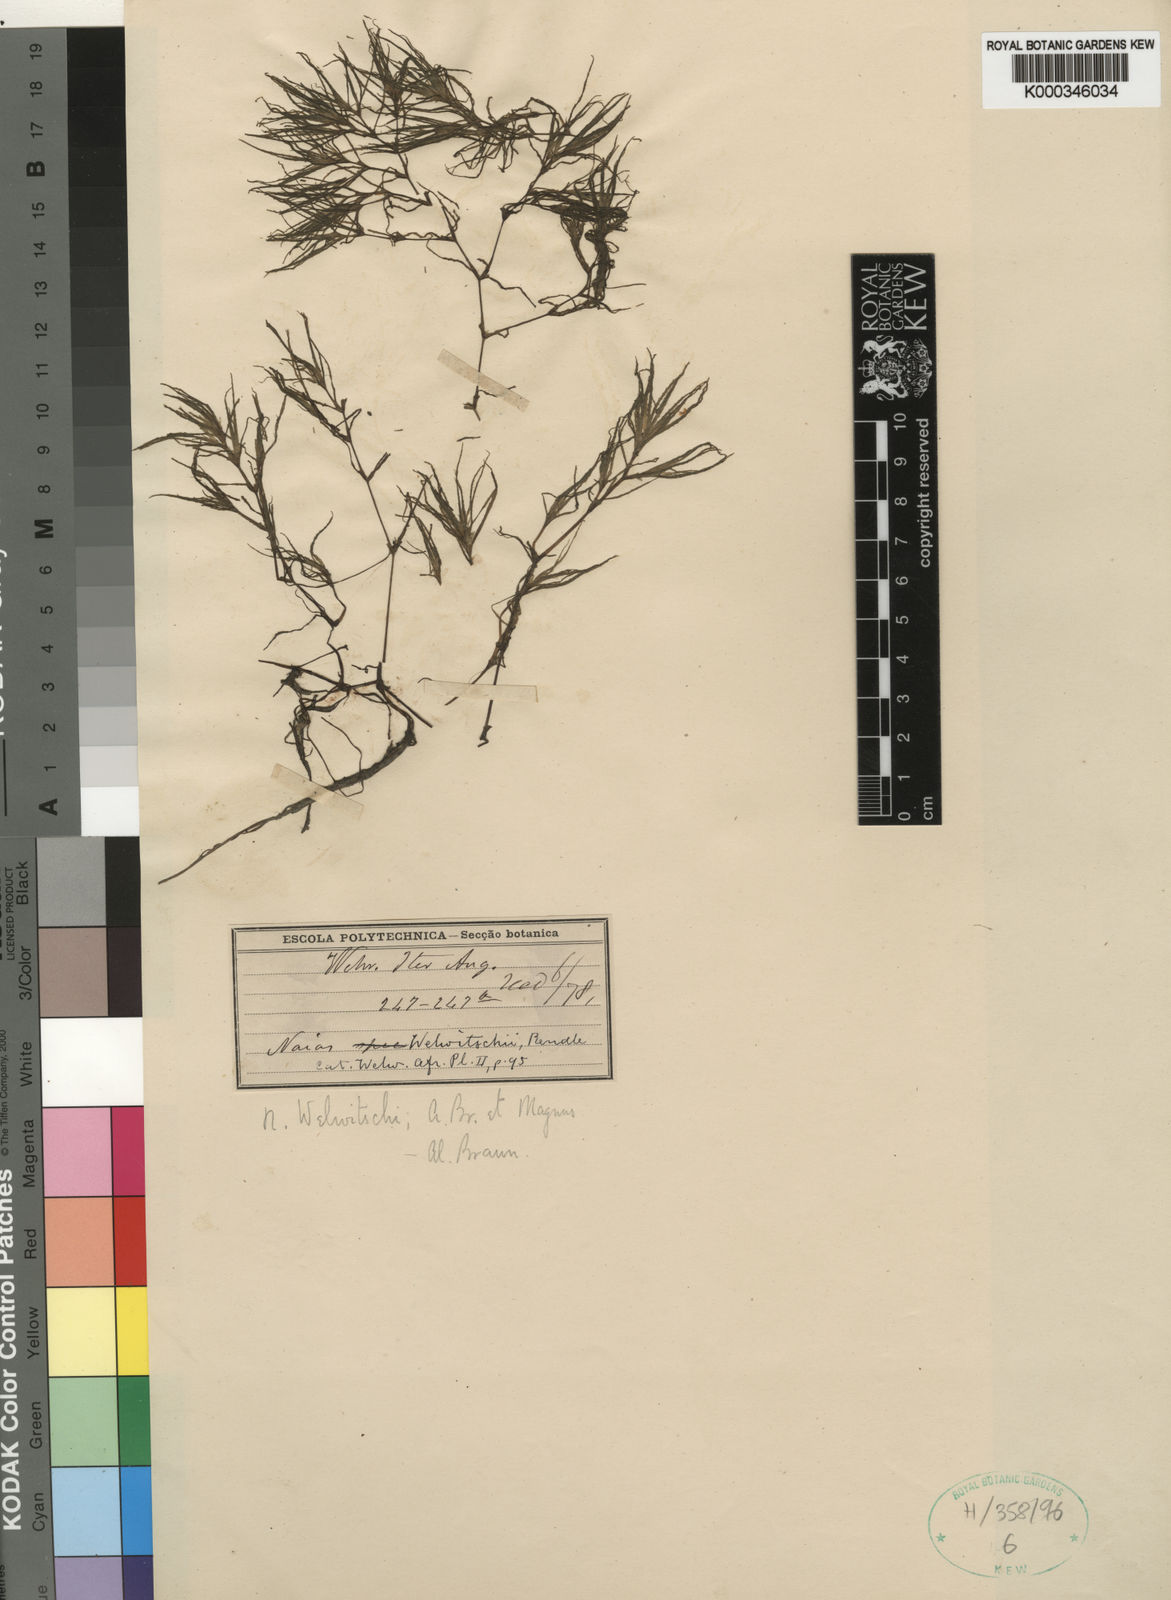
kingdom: Plantae
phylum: Tracheophyta
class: Liliopsida
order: Alismatales
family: Hydrocharitaceae
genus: Najas
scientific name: Najas welwitschii
